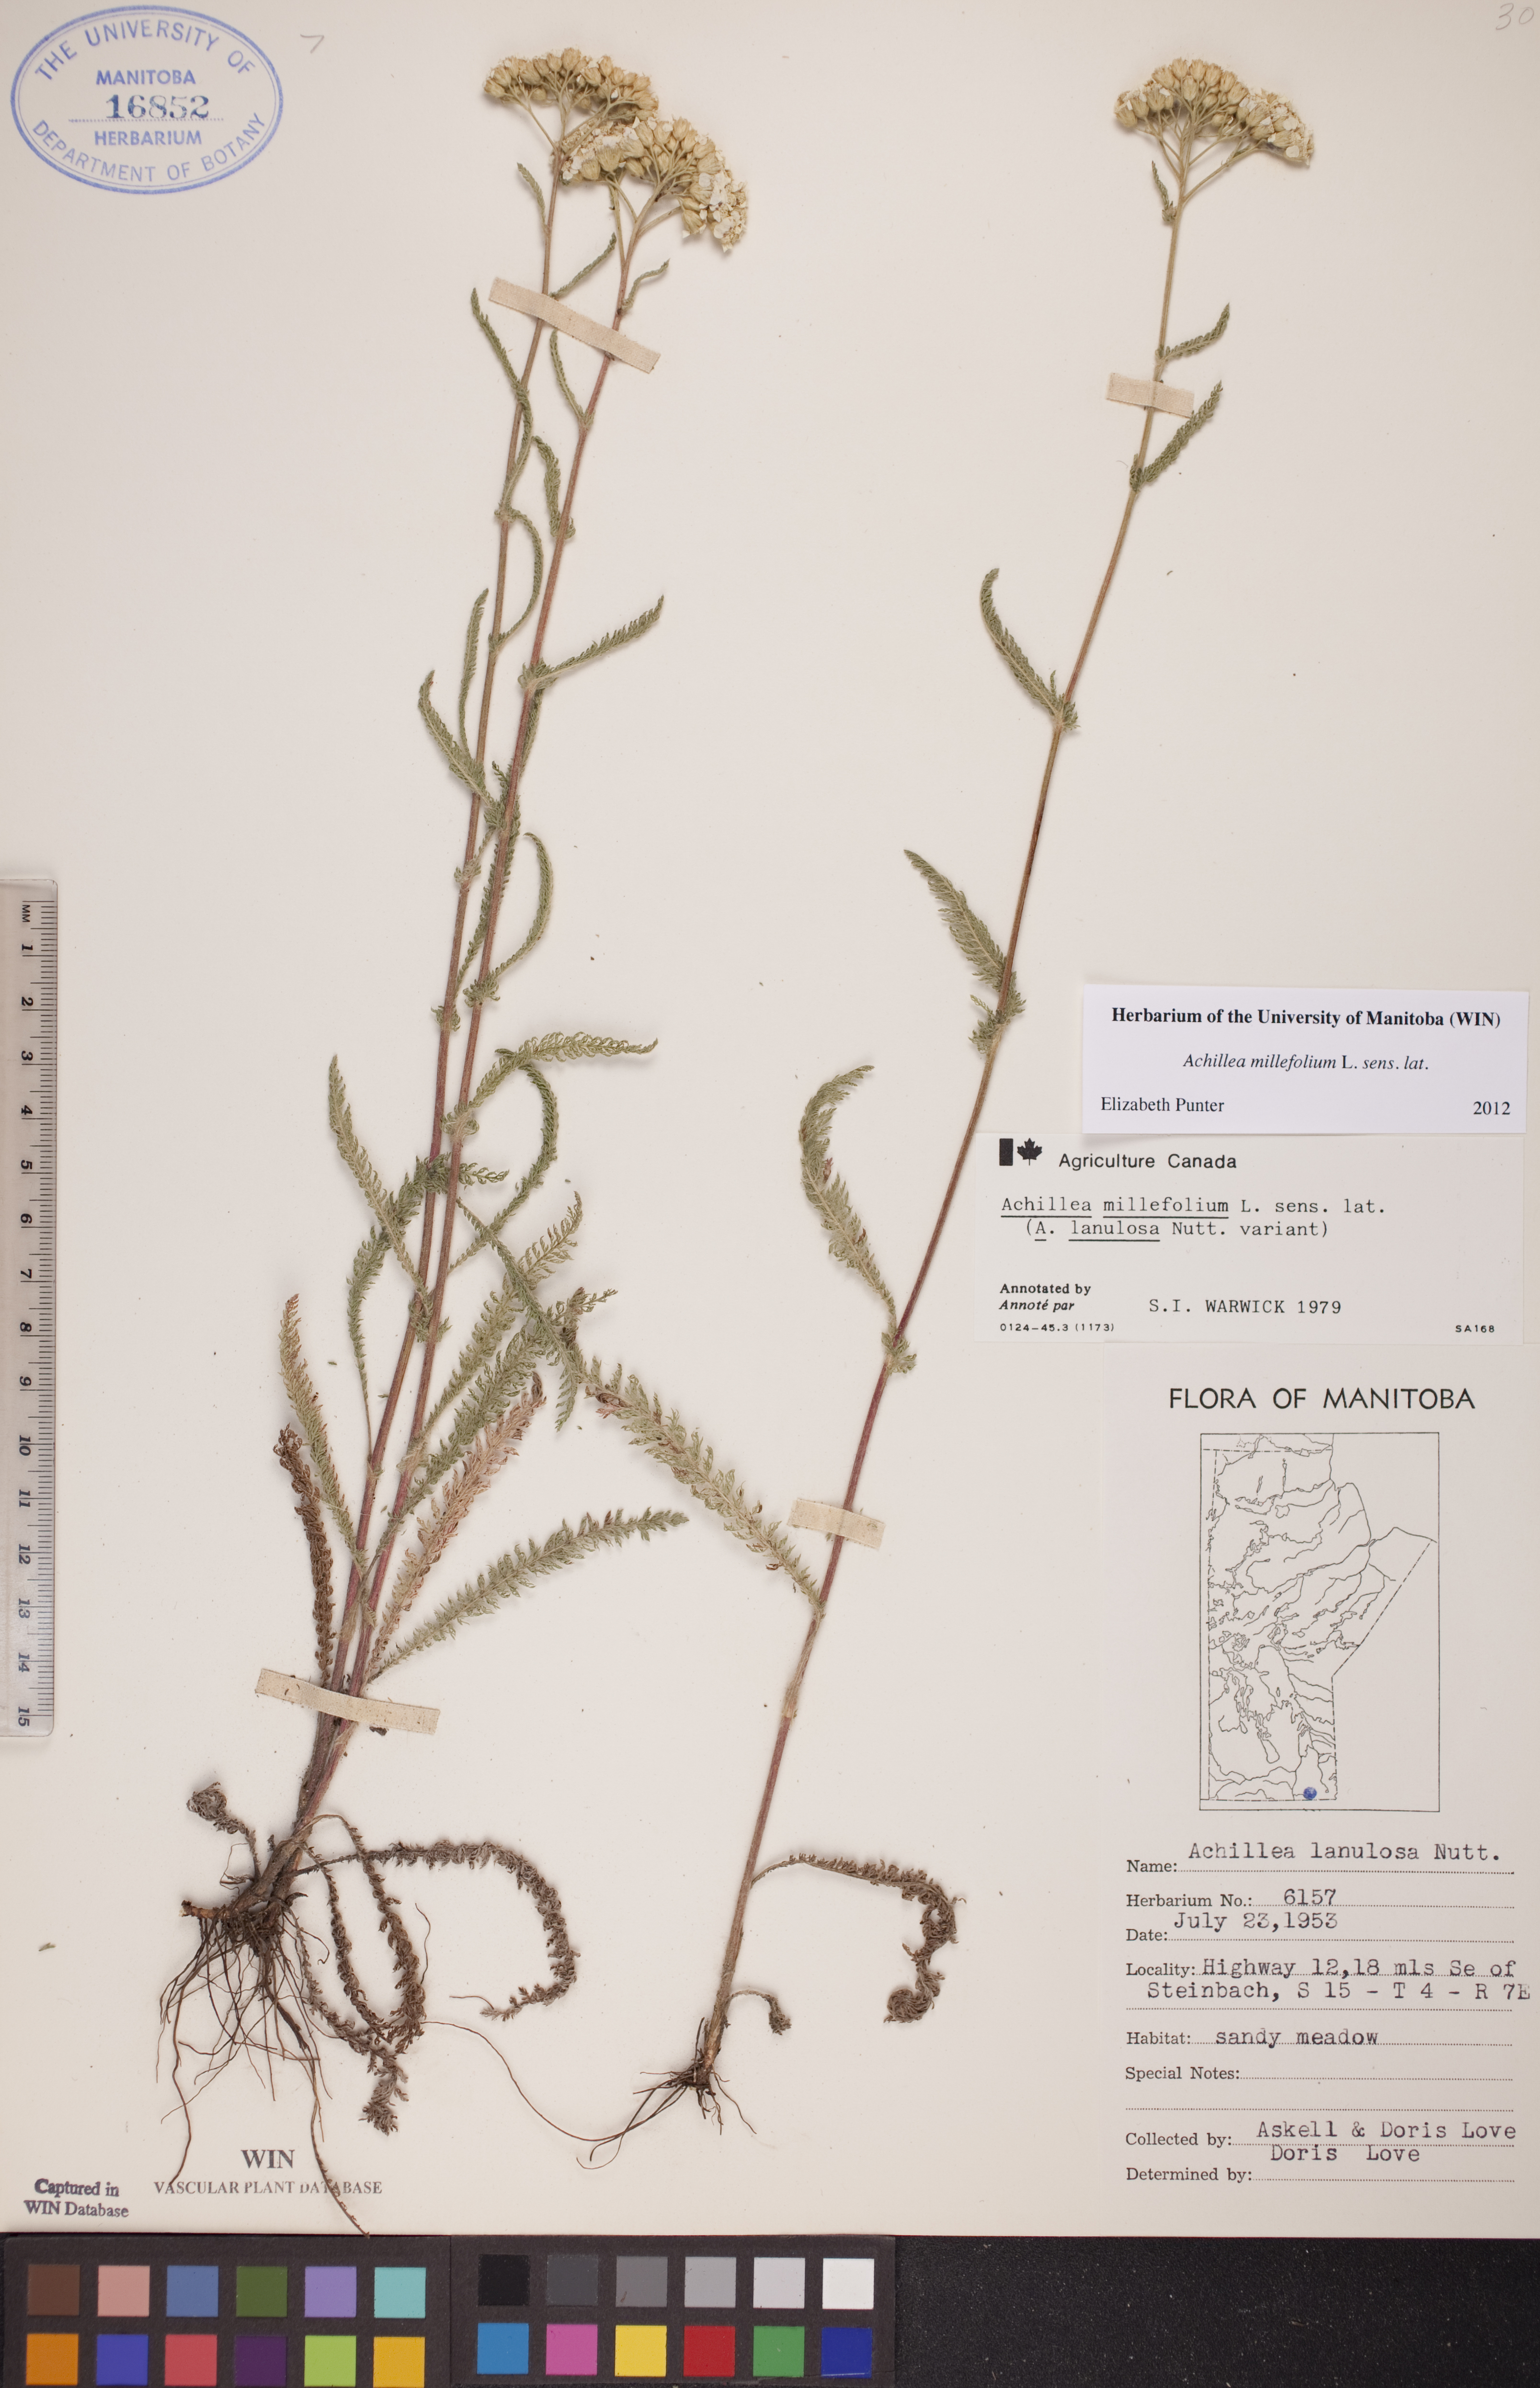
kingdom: Plantae
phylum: Tracheophyta
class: Magnoliopsida
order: Asterales
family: Asteraceae
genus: Achillea
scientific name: Achillea millefolium
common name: Yarrow
